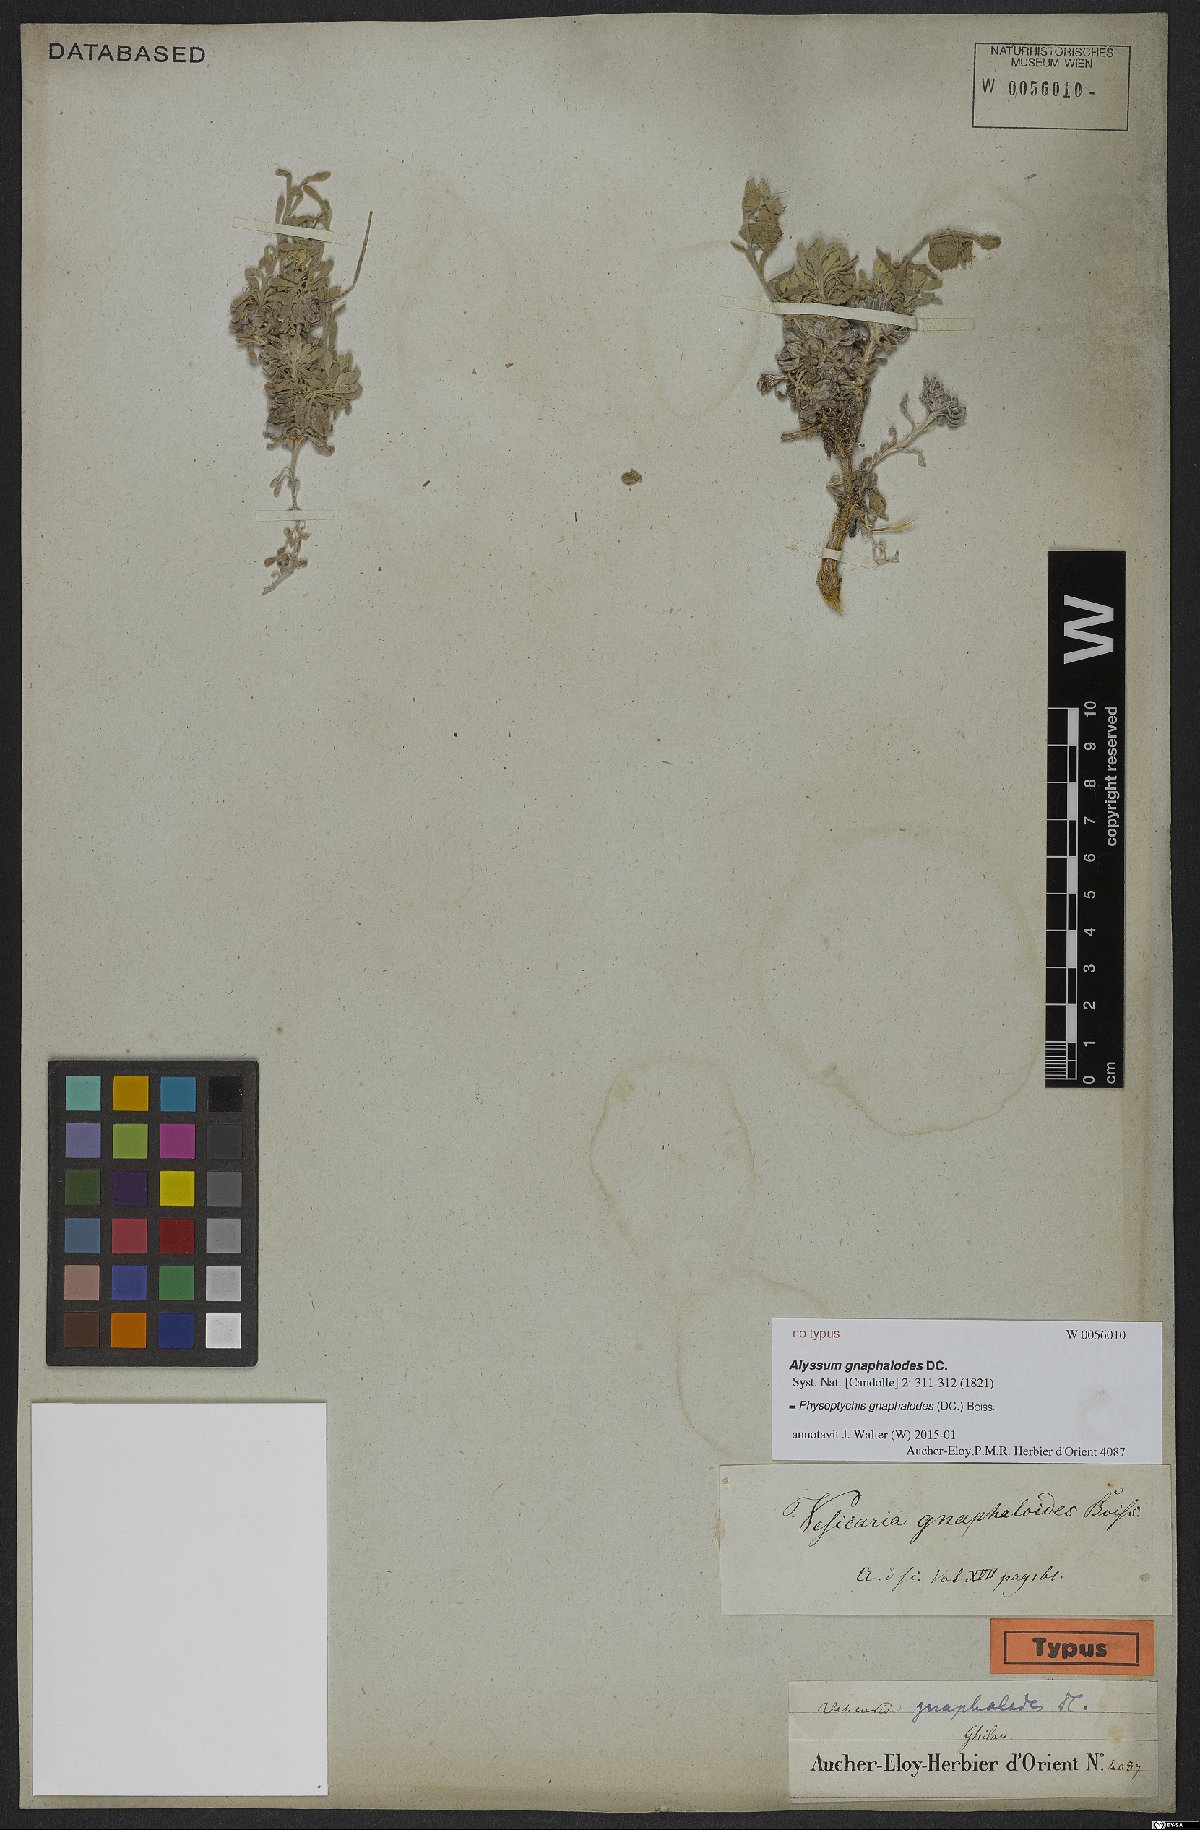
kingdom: Plantae
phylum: Tracheophyta
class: Magnoliopsida
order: Brassicales
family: Brassicaceae
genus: Physoptychis
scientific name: Physoptychis caspica
